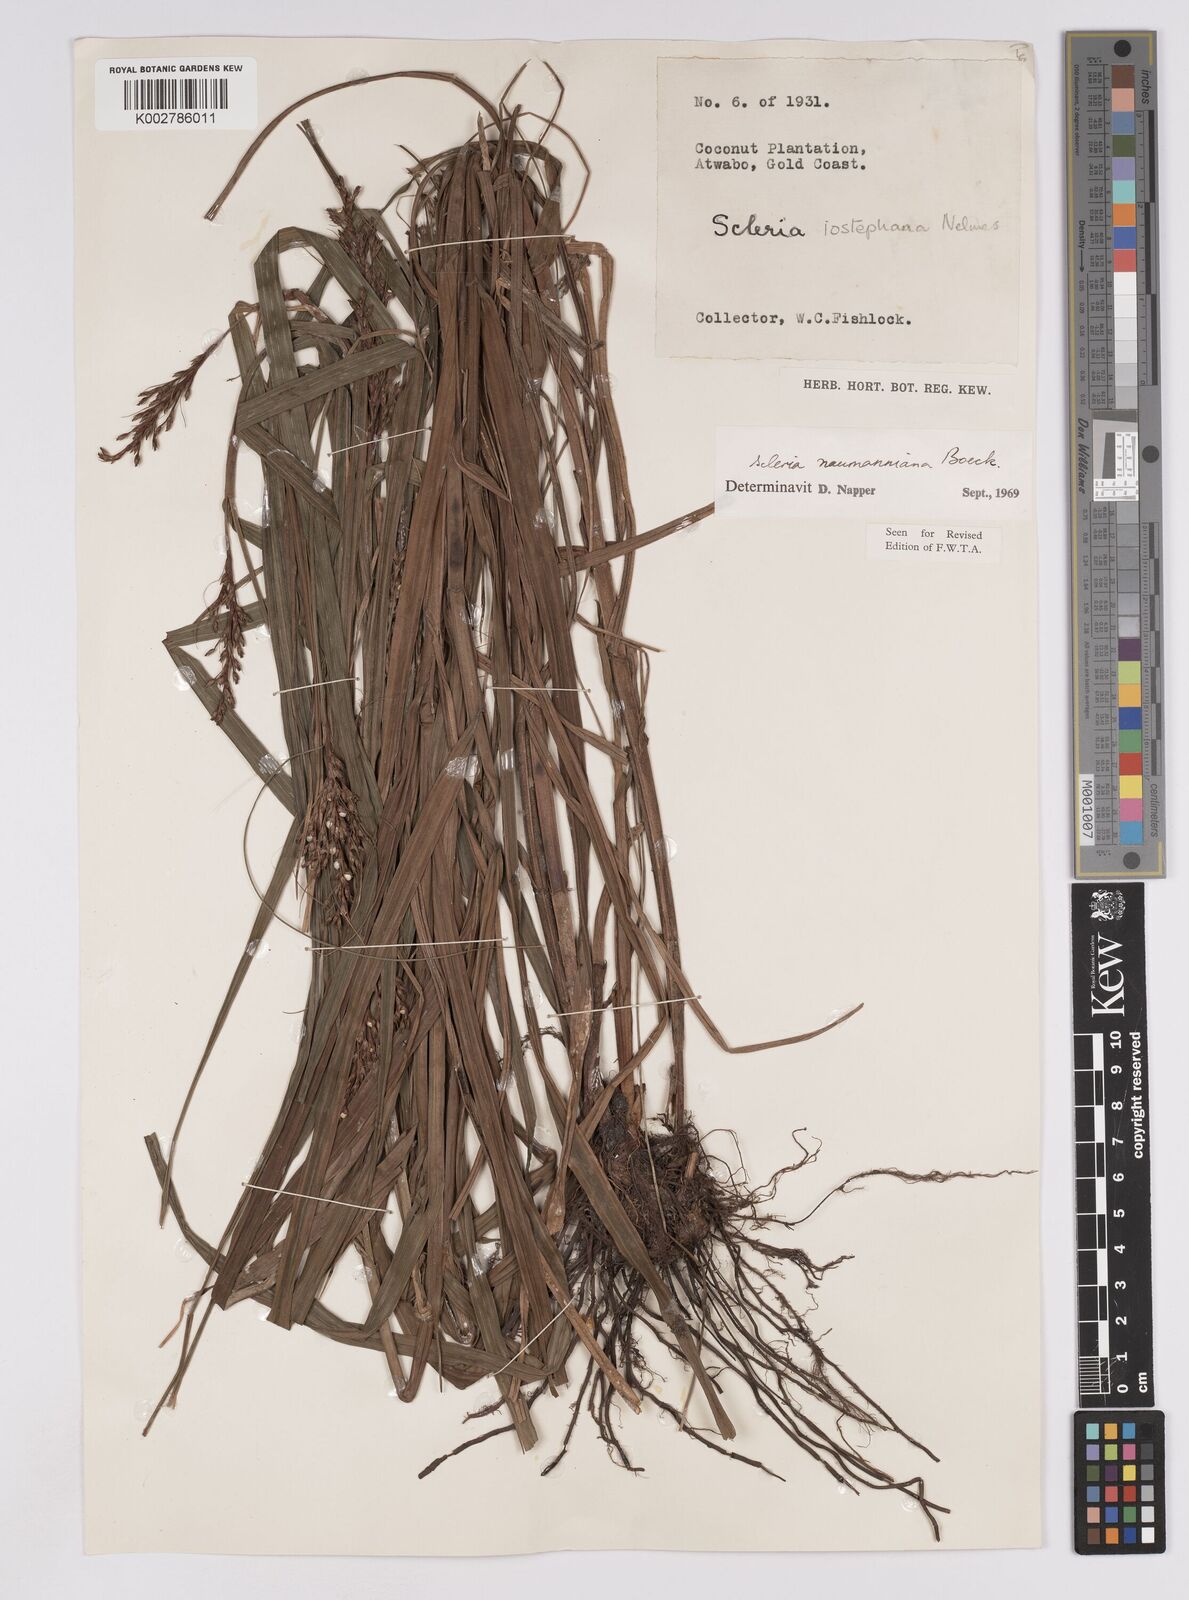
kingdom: Plantae
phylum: Tracheophyta
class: Liliopsida
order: Poales
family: Cyperaceae
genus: Scleria
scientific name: Scleria naumanniana
